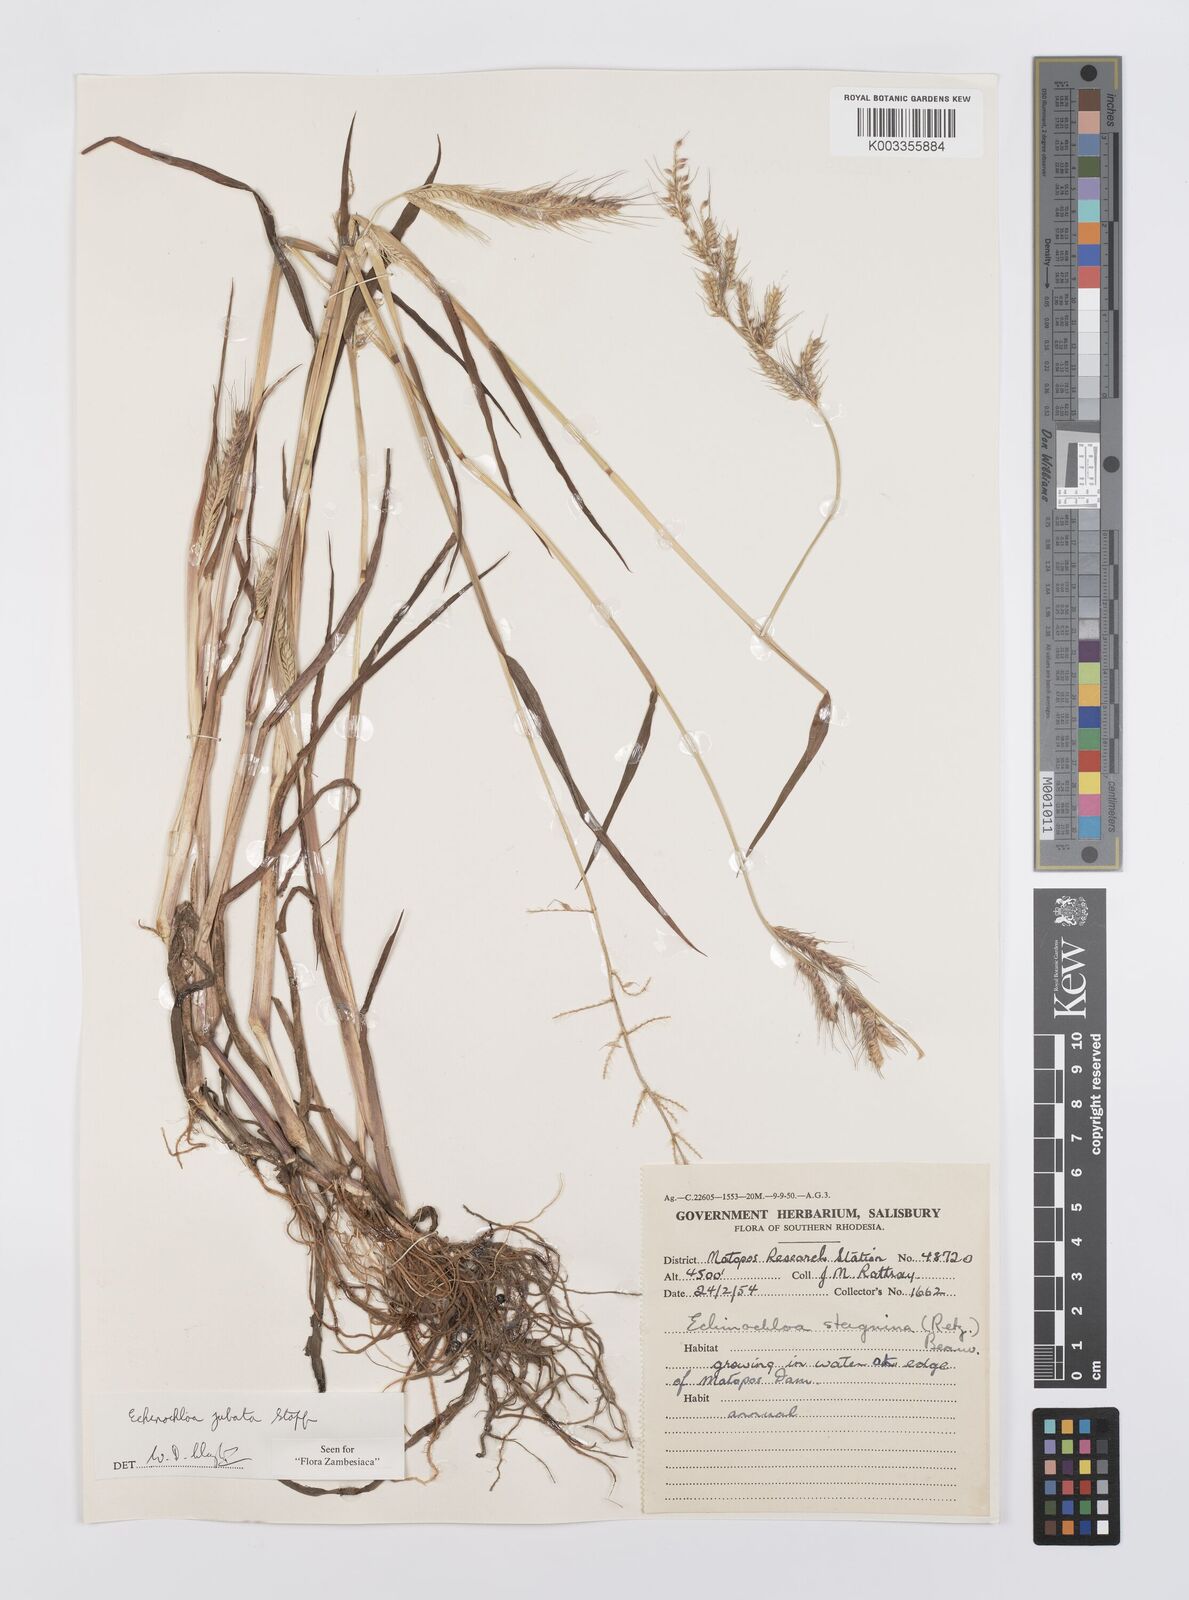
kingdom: Plantae
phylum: Tracheophyta
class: Liliopsida
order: Poales
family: Poaceae
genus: Echinochloa
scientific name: Echinochloa jubata
